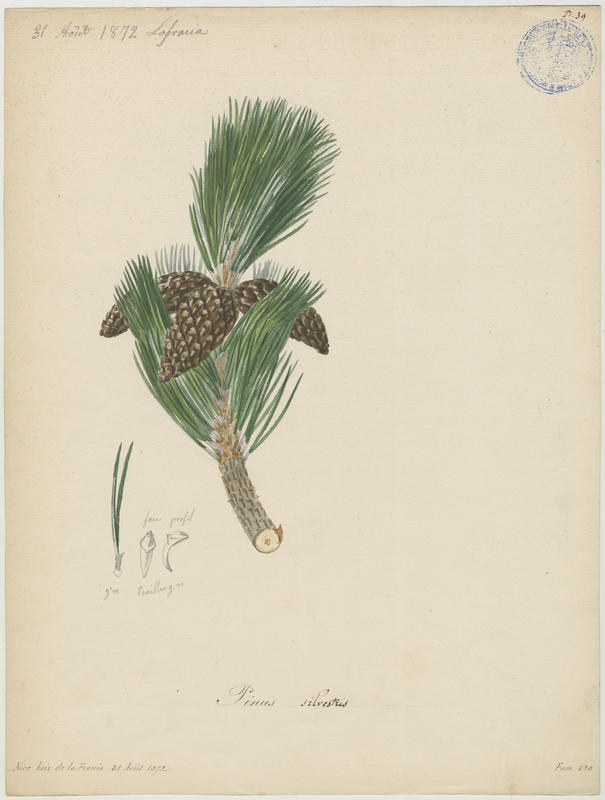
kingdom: Plantae
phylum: Tracheophyta
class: Pinopsida
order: Pinales
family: Pinaceae
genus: Pinus
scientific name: Pinus sylvestris
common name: Scots pine
